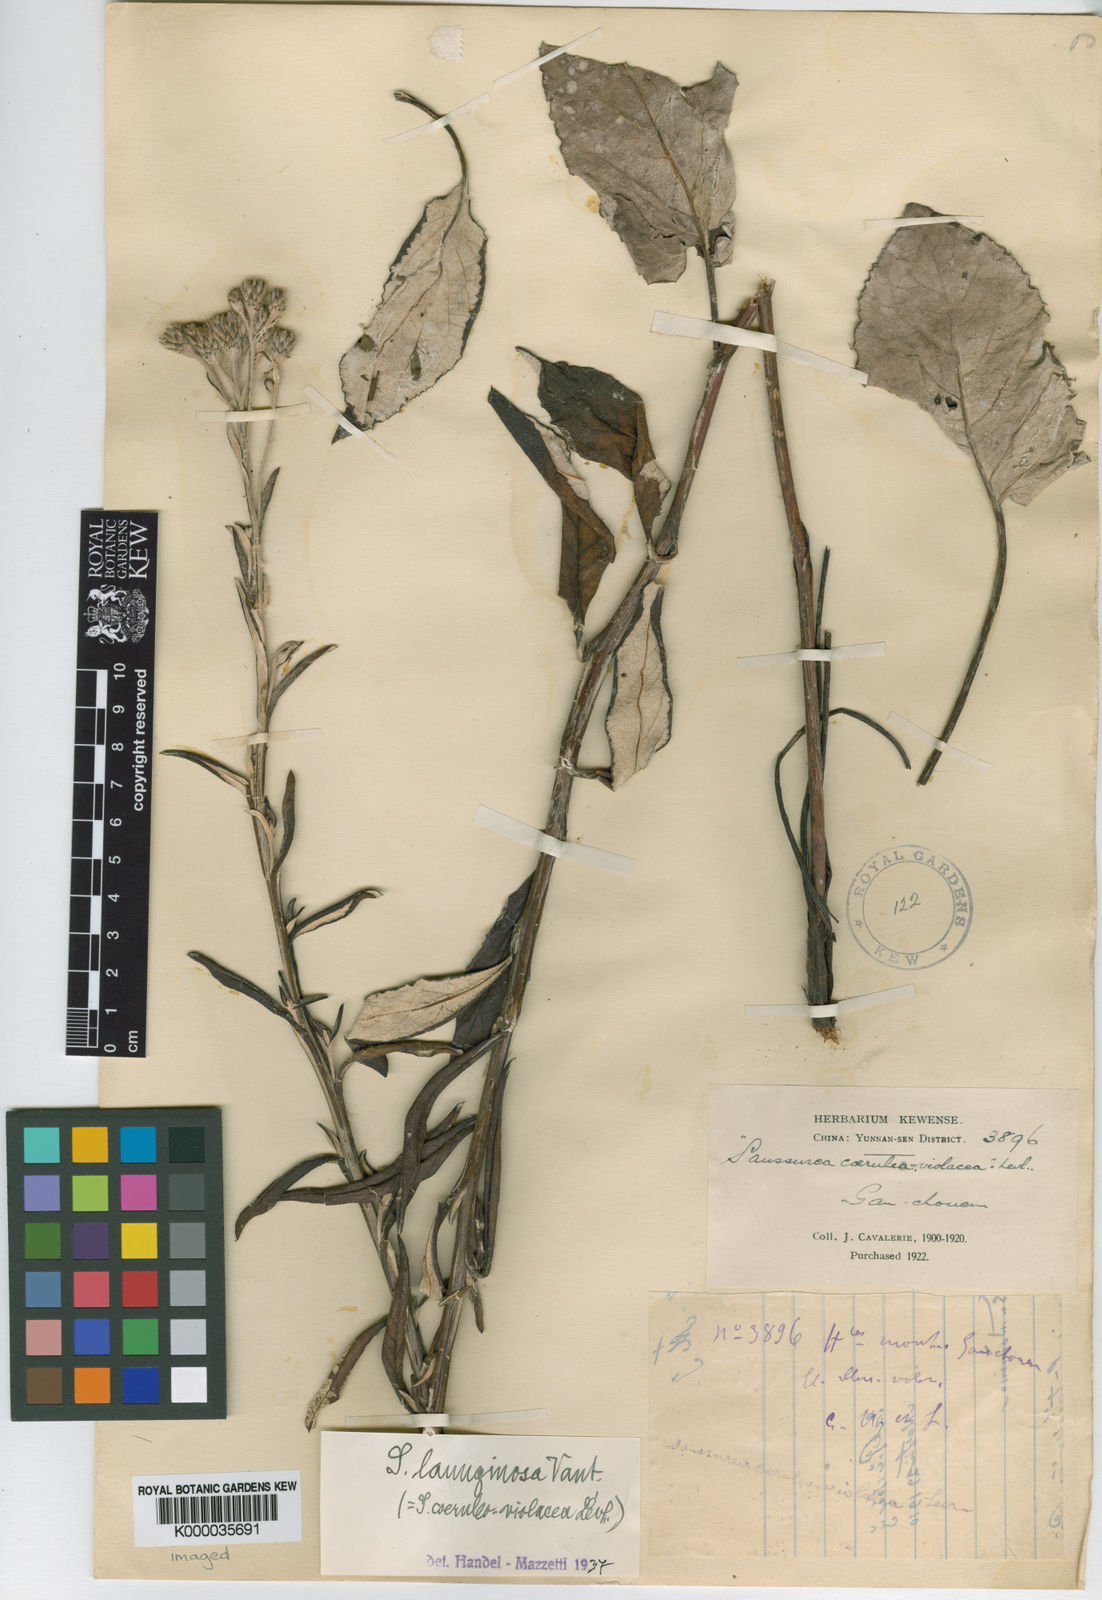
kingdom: Plantae
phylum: Tracheophyta
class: Magnoliopsida
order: Asterales
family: Asteraceae
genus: Saussurea
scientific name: Saussurea chetchozensis
